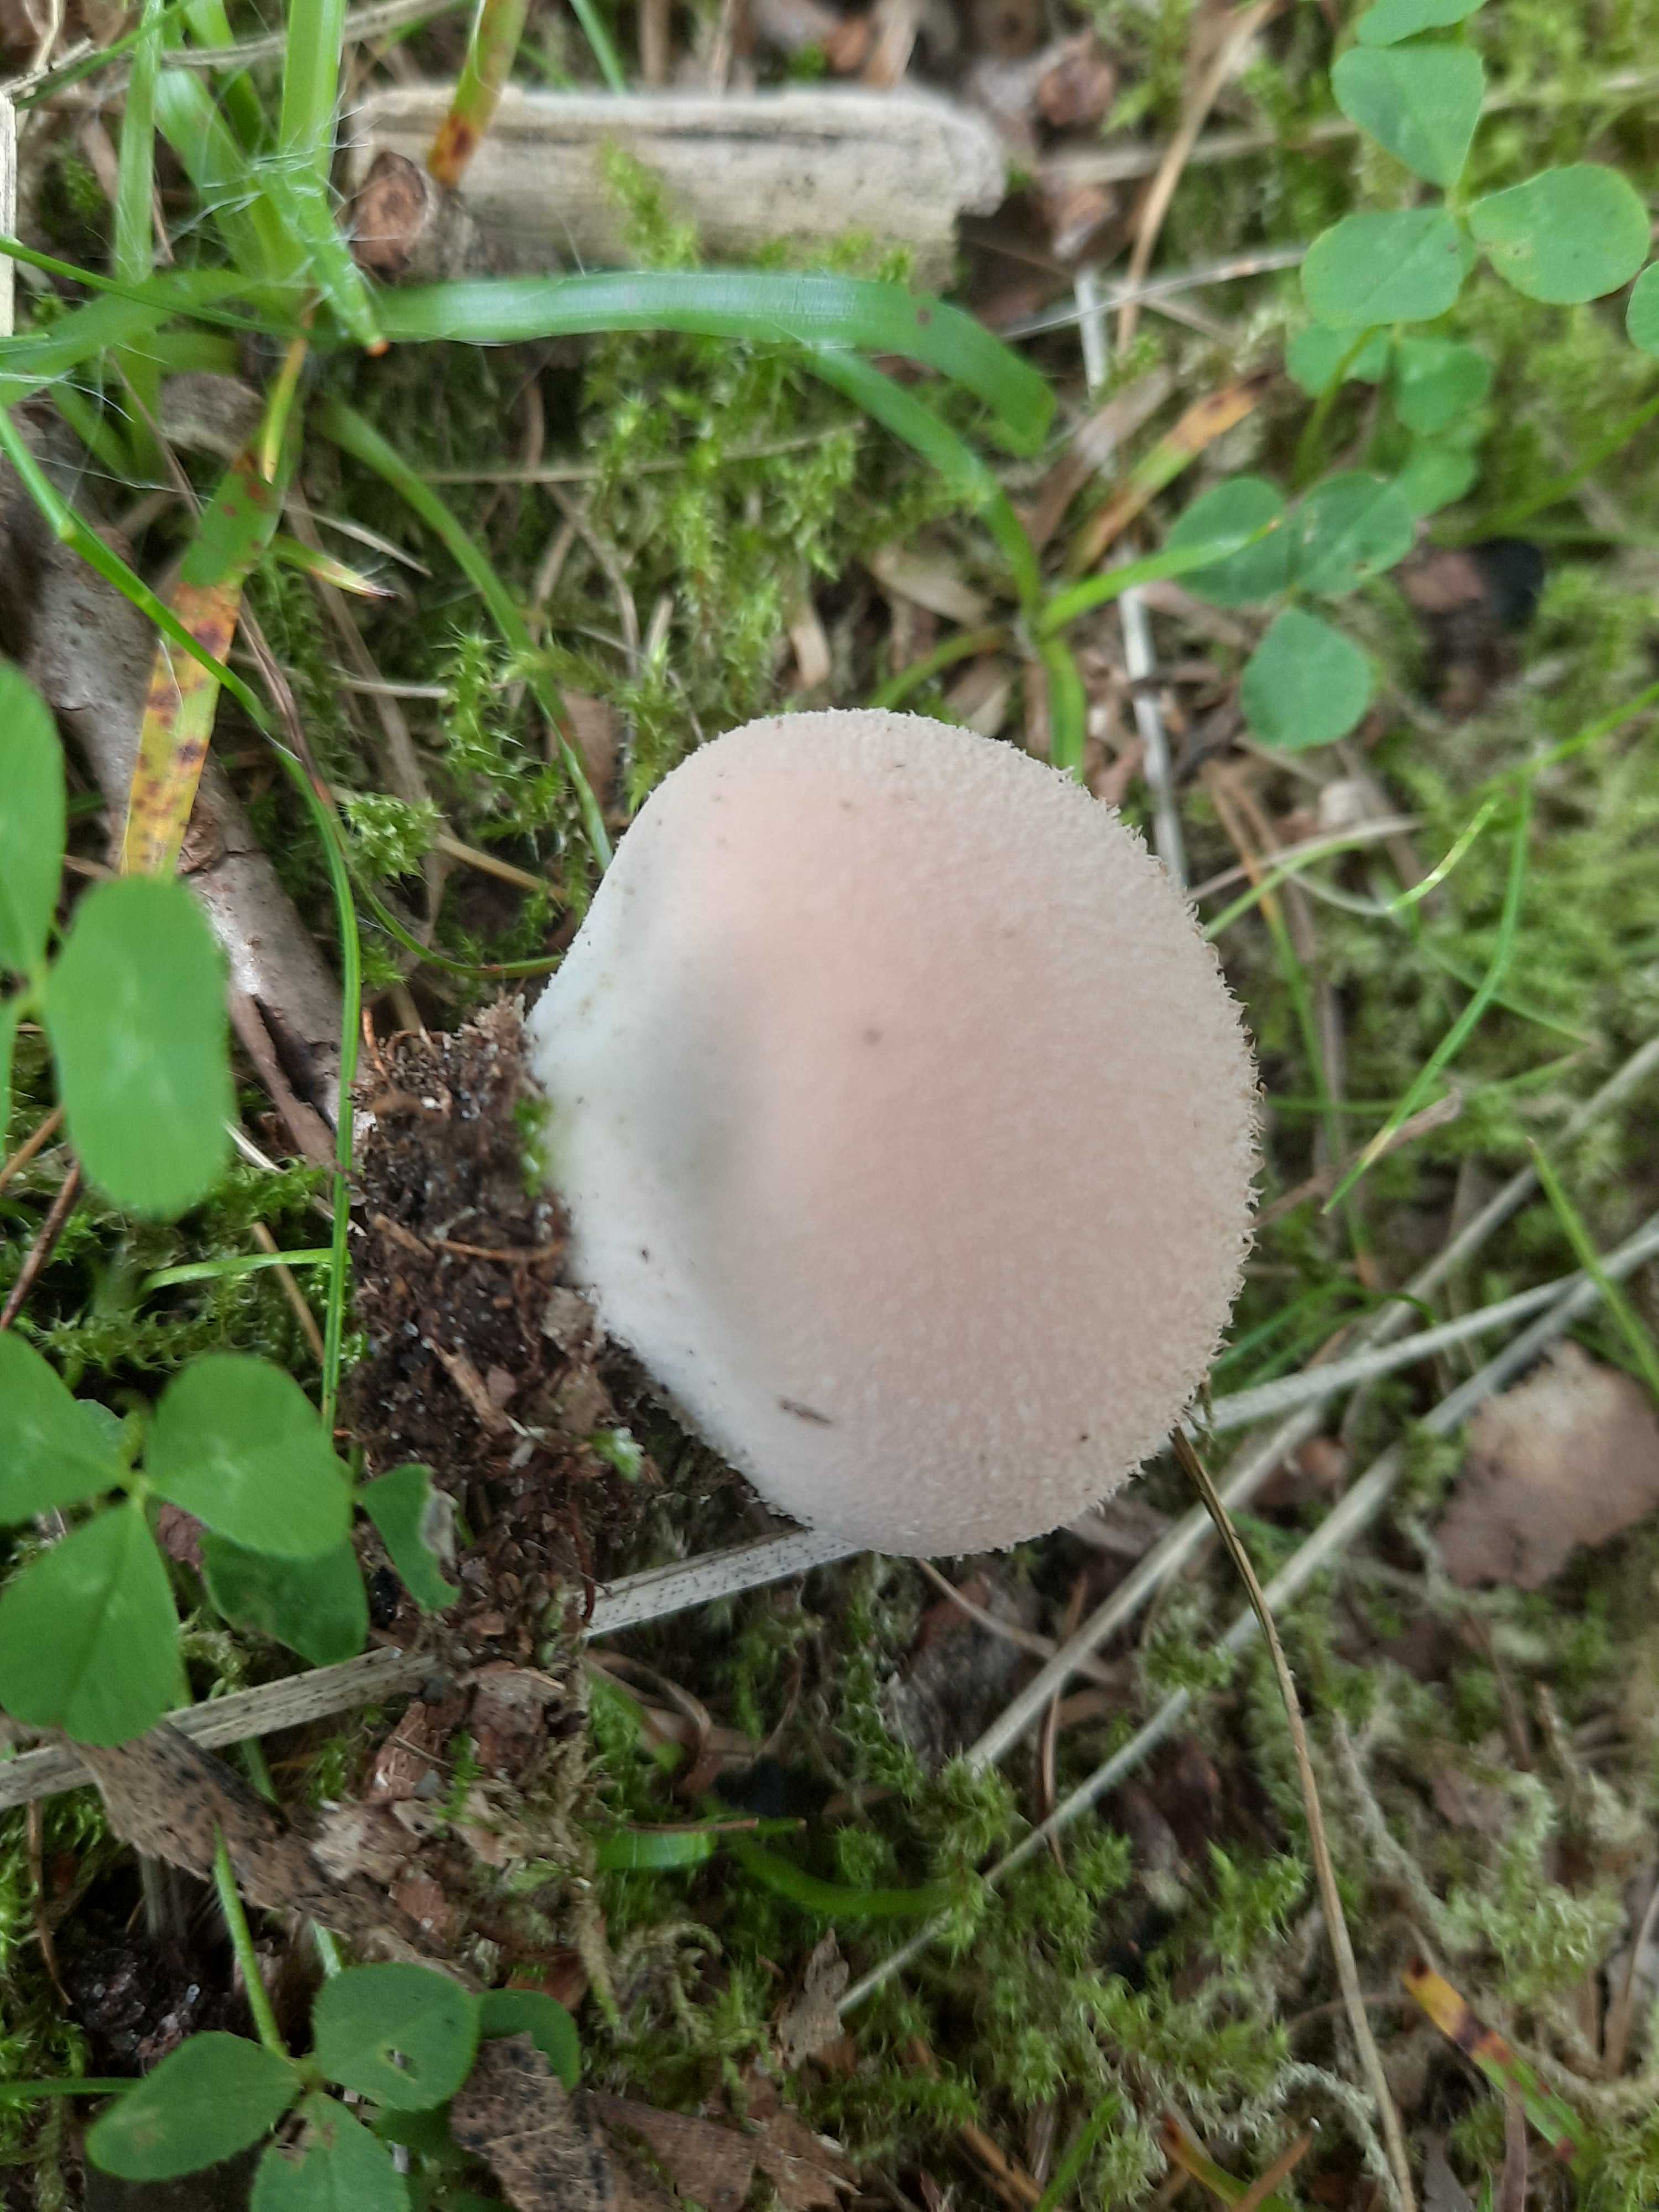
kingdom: Fungi
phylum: Basidiomycota
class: Agaricomycetes
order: Agaricales
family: Lycoperdaceae
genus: Lycoperdon
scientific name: Lycoperdon molle
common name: skov-støvbold
